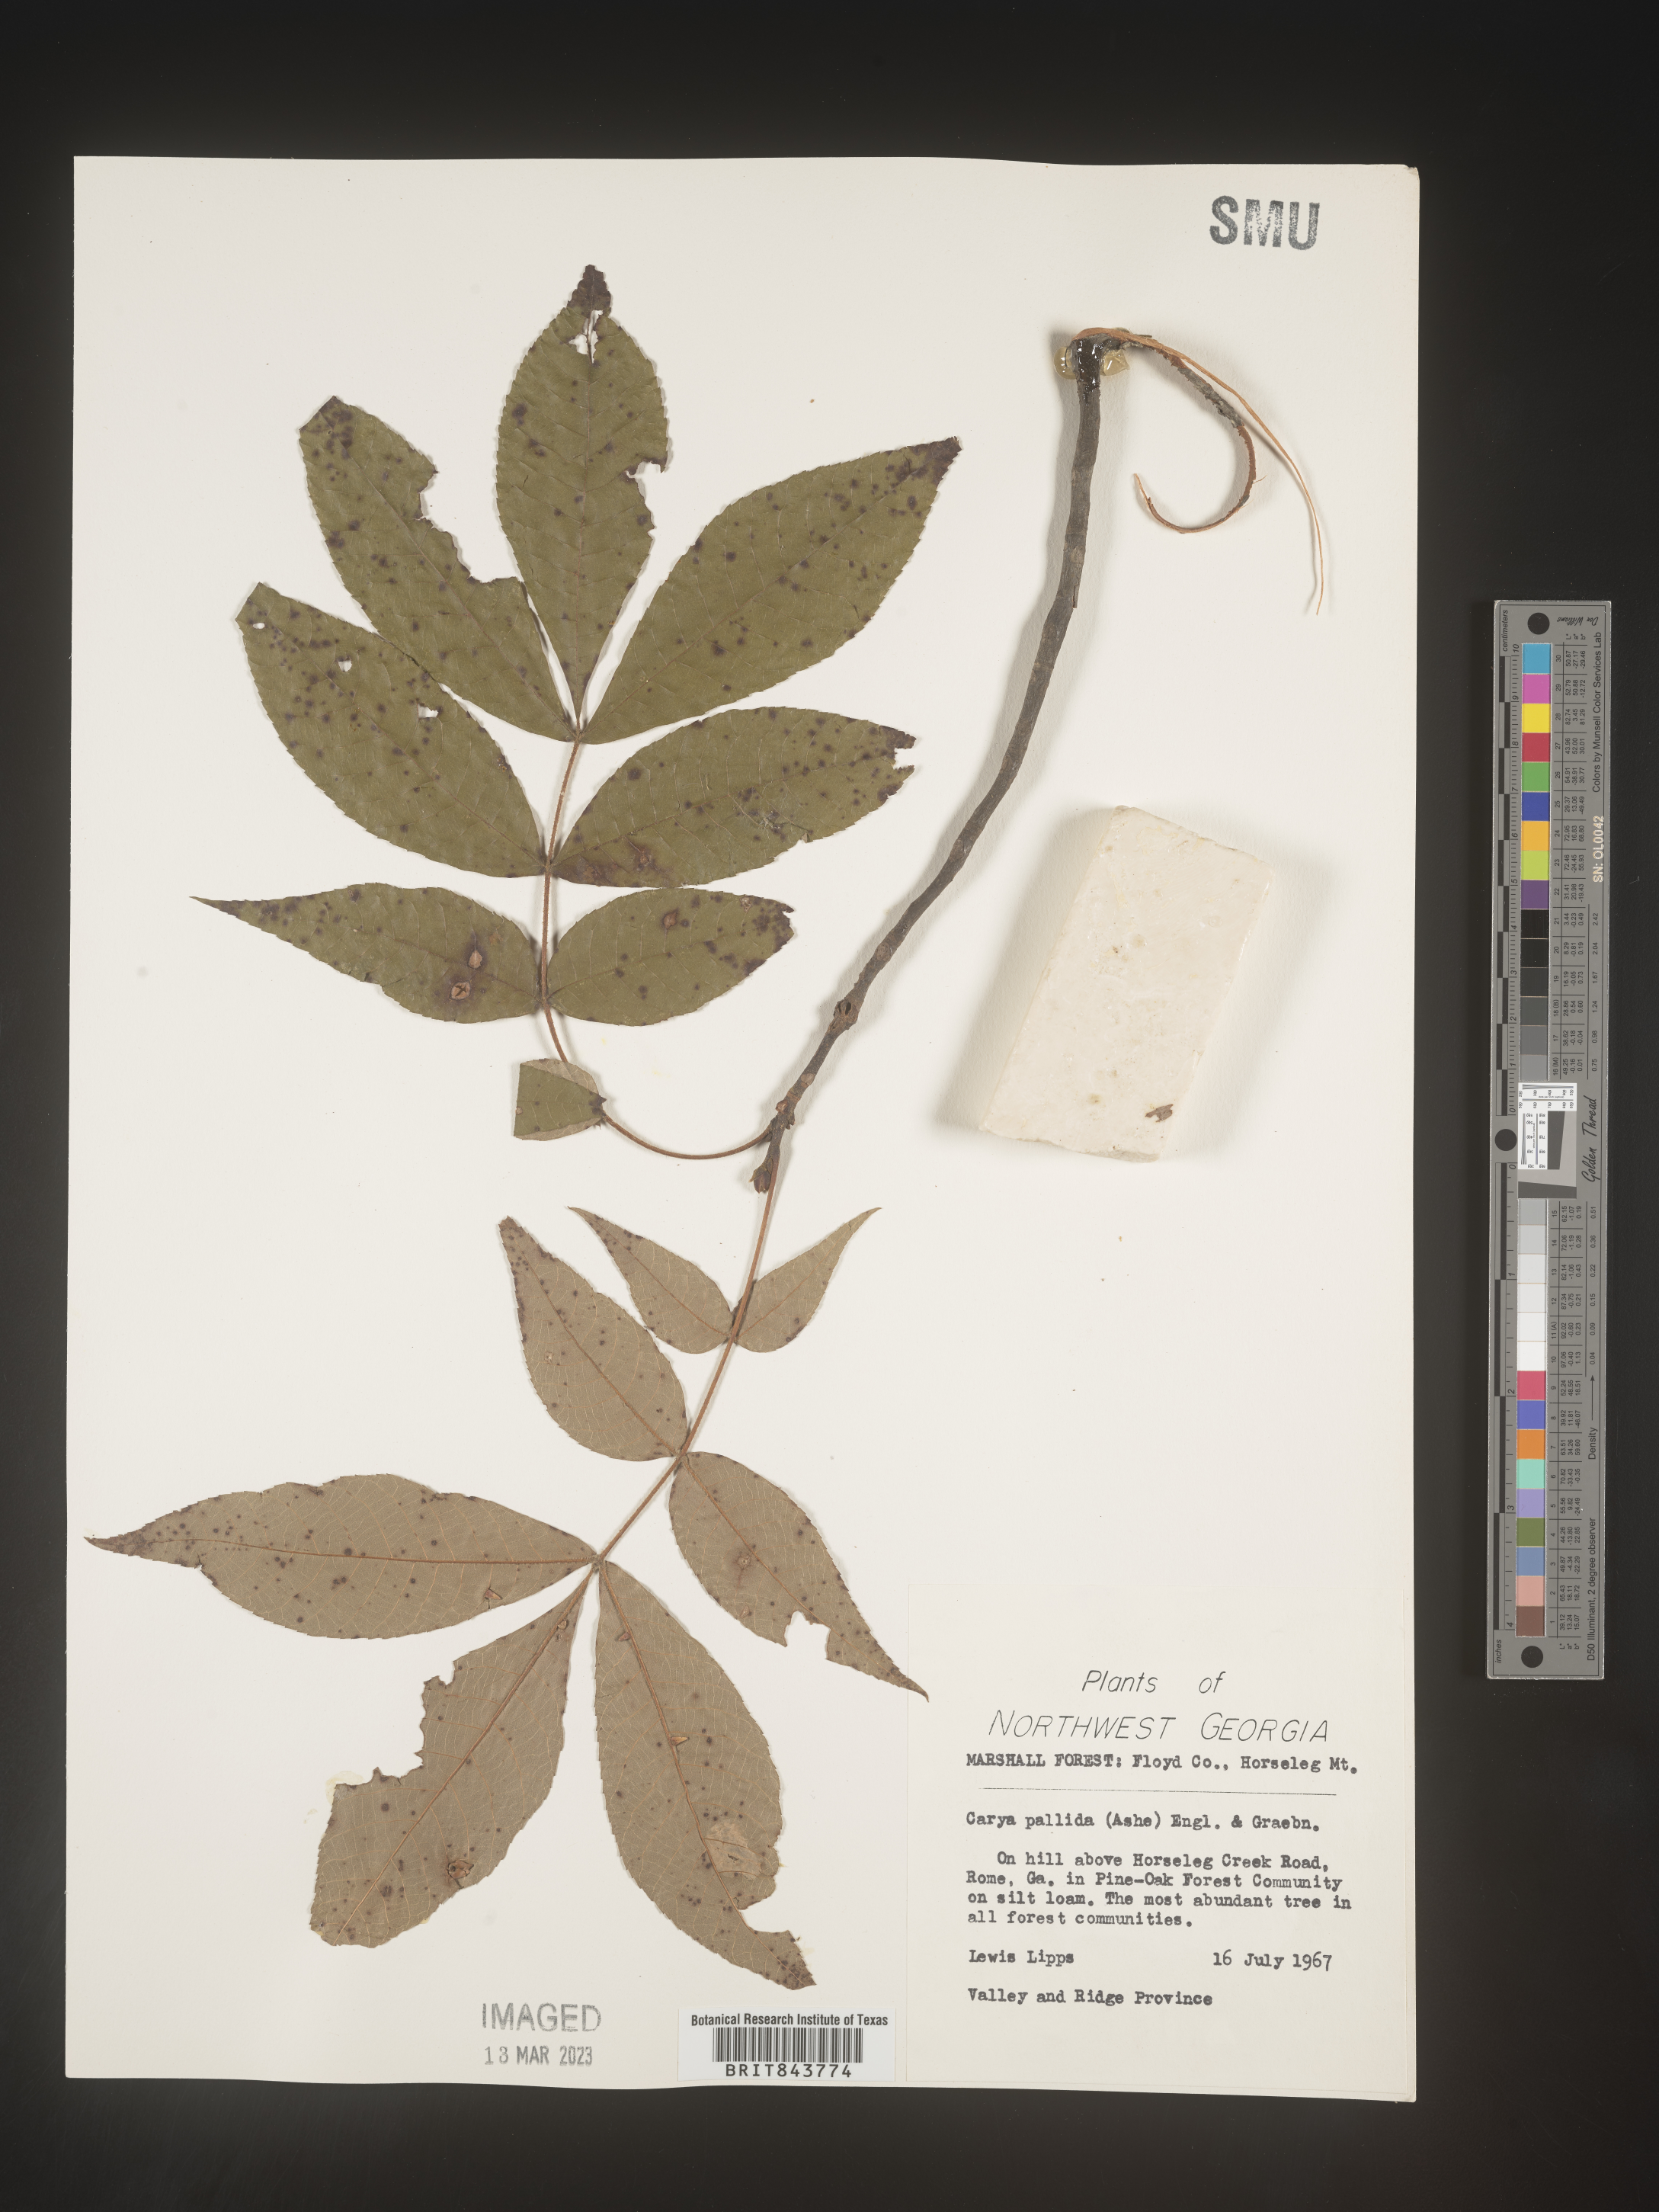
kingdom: Plantae
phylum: Tracheophyta
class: Magnoliopsida
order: Fagales
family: Juglandaceae
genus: Carya
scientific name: Carya pallida
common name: Sand hickory
